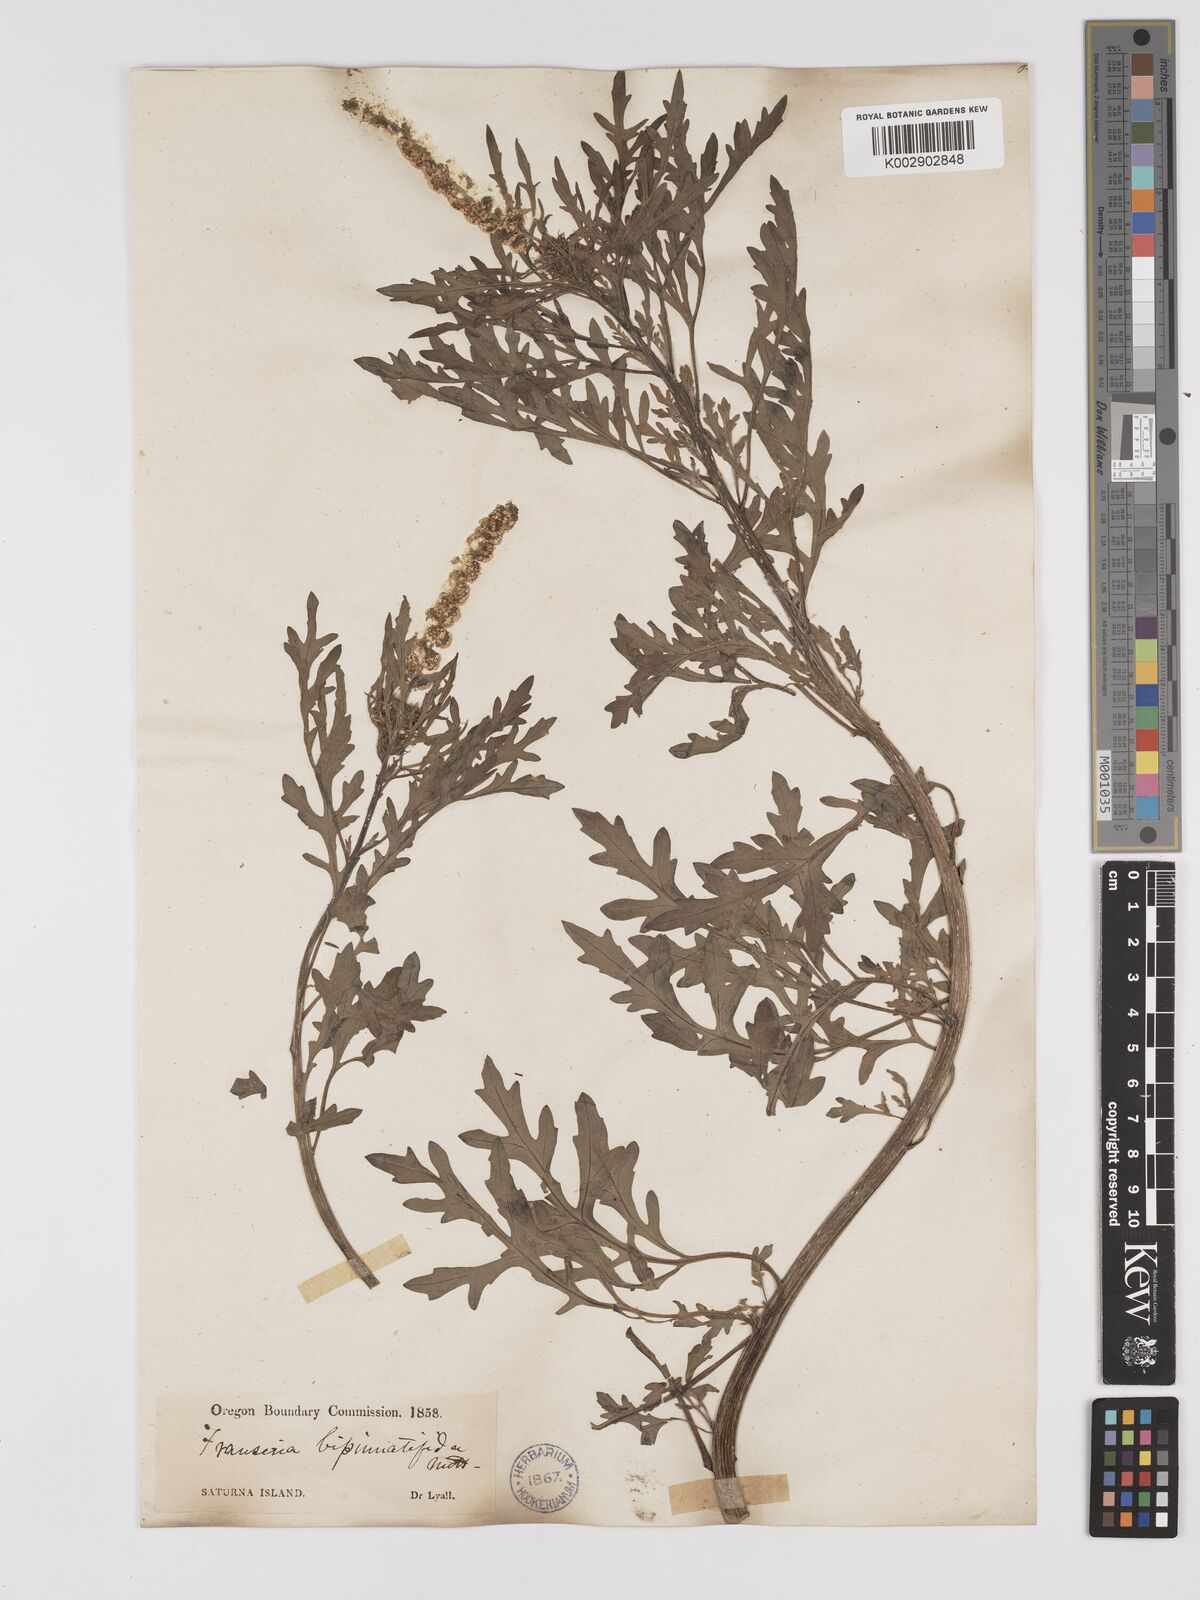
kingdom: Plantae
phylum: Tracheophyta
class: Magnoliopsida
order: Asterales
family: Asteraceae
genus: Ambrosia
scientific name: Ambrosia camphorata
